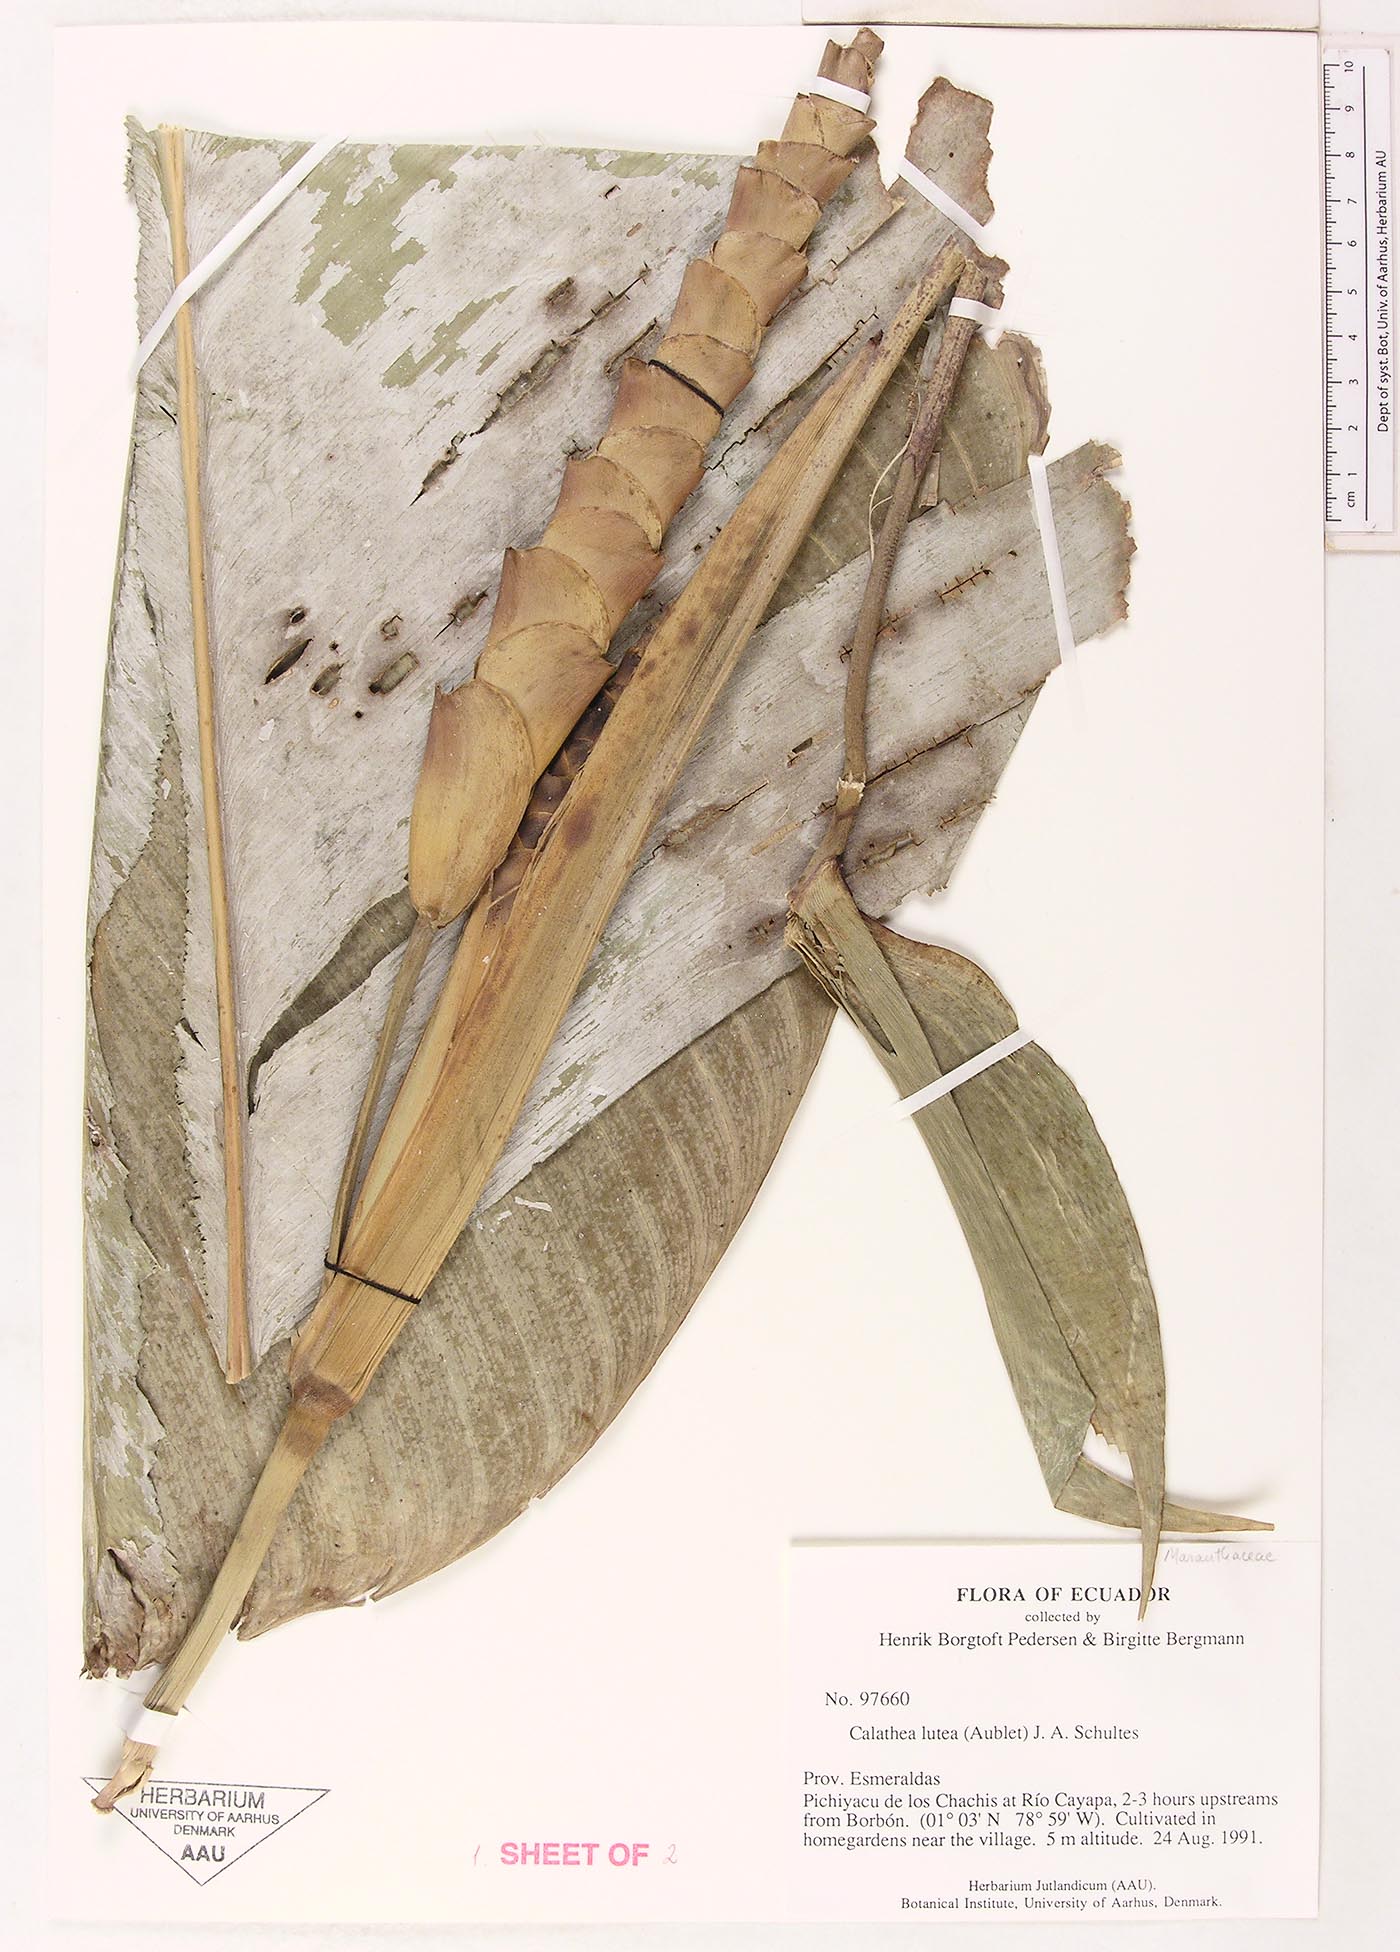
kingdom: Plantae
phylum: Tracheophyta
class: Liliopsida
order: Zingiberales
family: Marantaceae
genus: Calathea
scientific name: Calathea lutea
